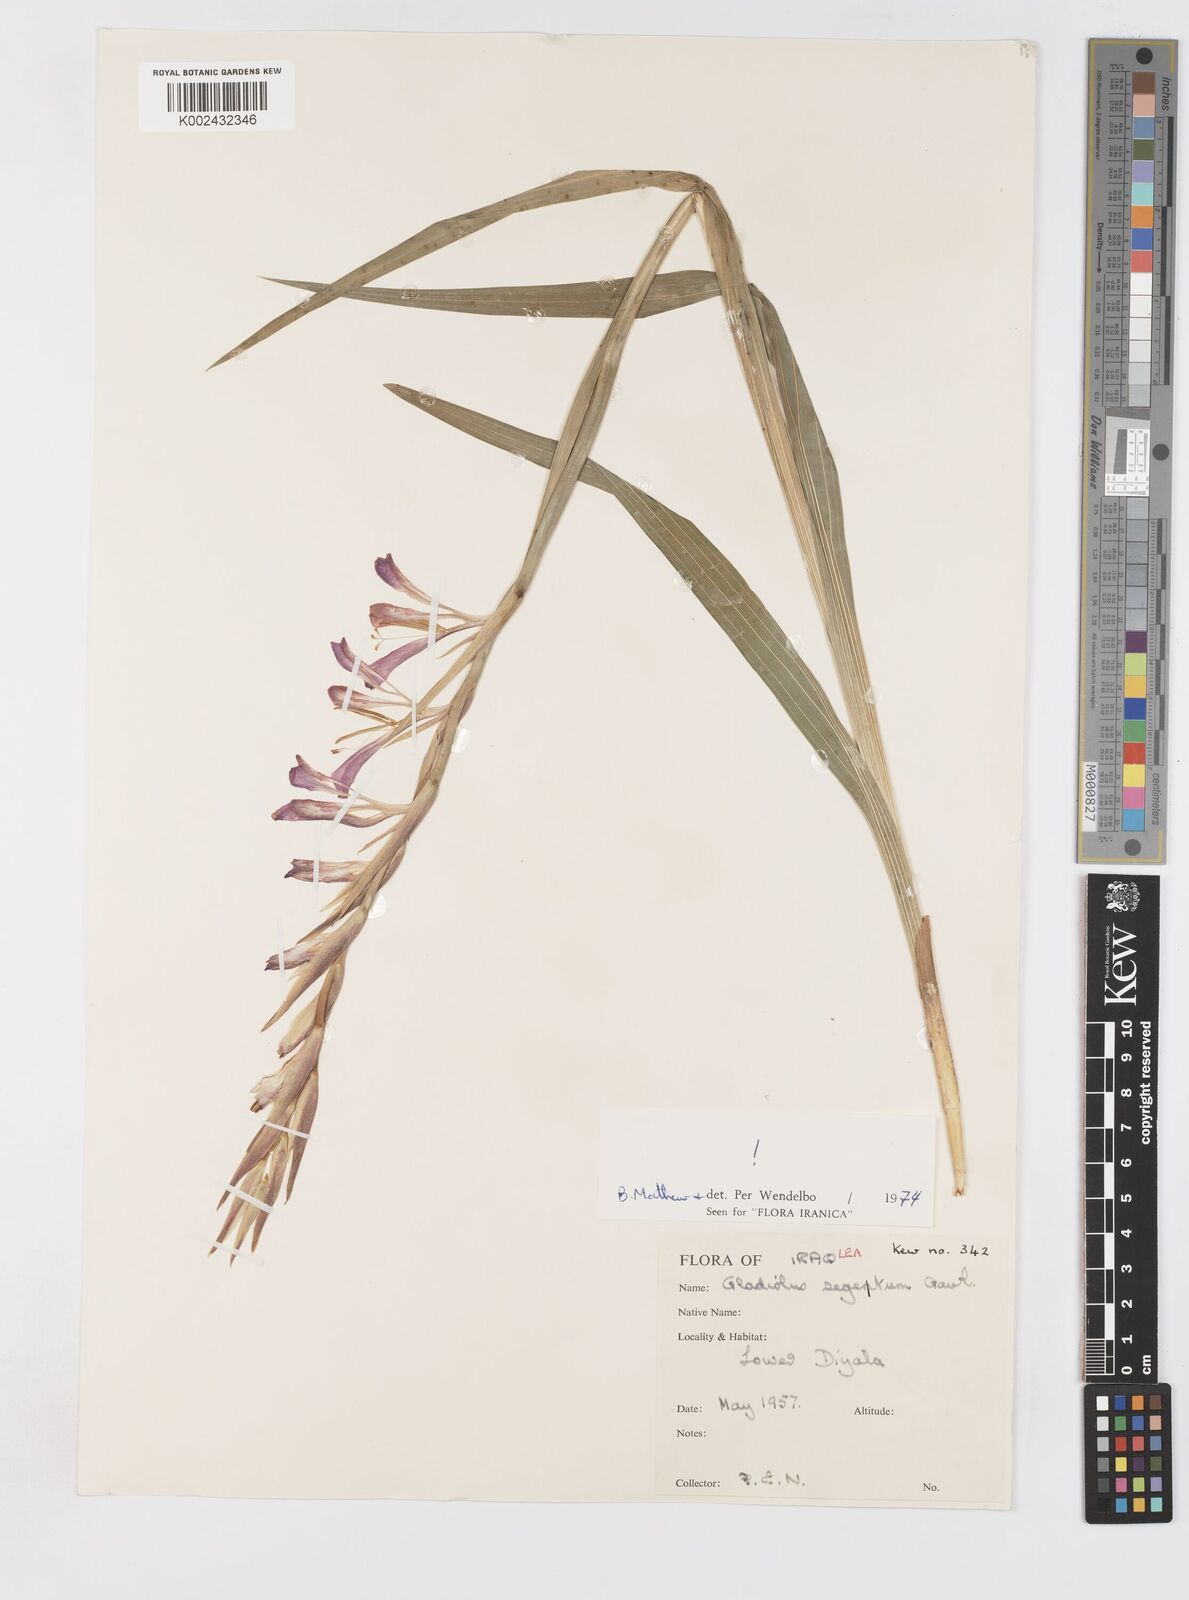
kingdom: Plantae
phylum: Tracheophyta
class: Liliopsida
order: Asparagales
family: Iridaceae
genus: Gladiolus
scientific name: Gladiolus italicus
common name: Field gladiolus
